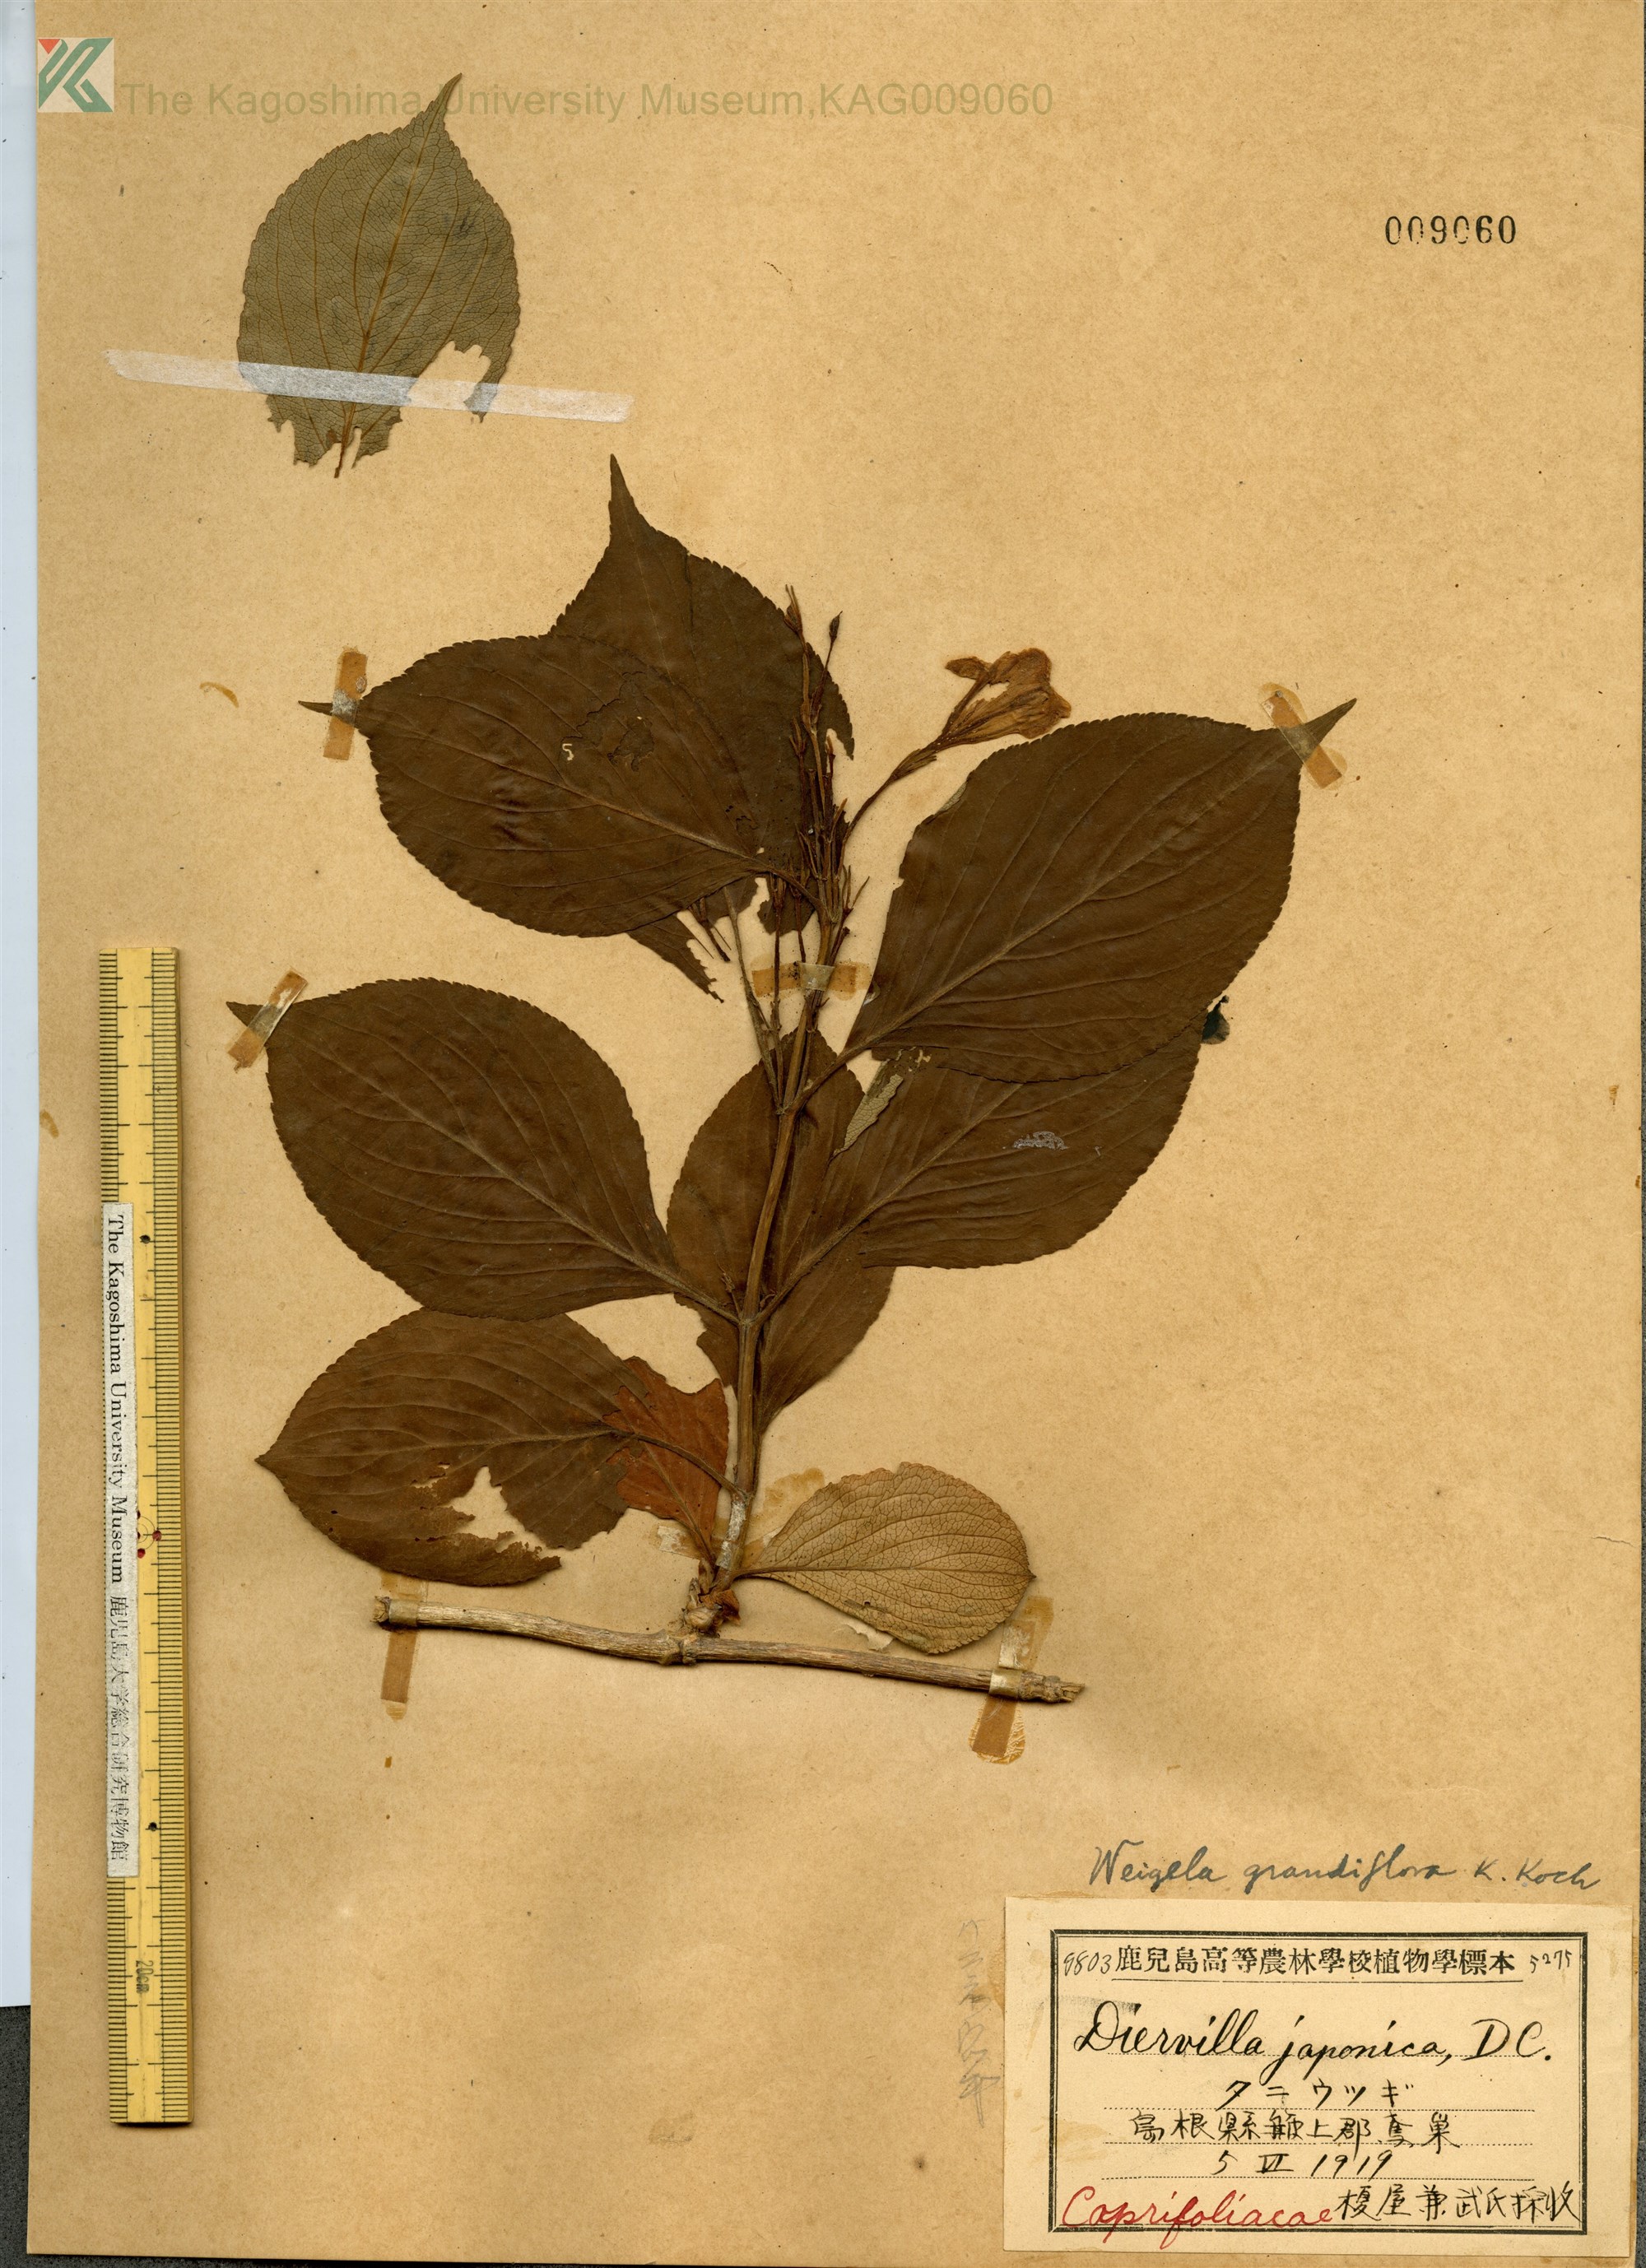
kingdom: Plantae
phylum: Tracheophyta
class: Magnoliopsida
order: Dipsacales
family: Caprifoliaceae
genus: Weigela
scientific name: Weigela
